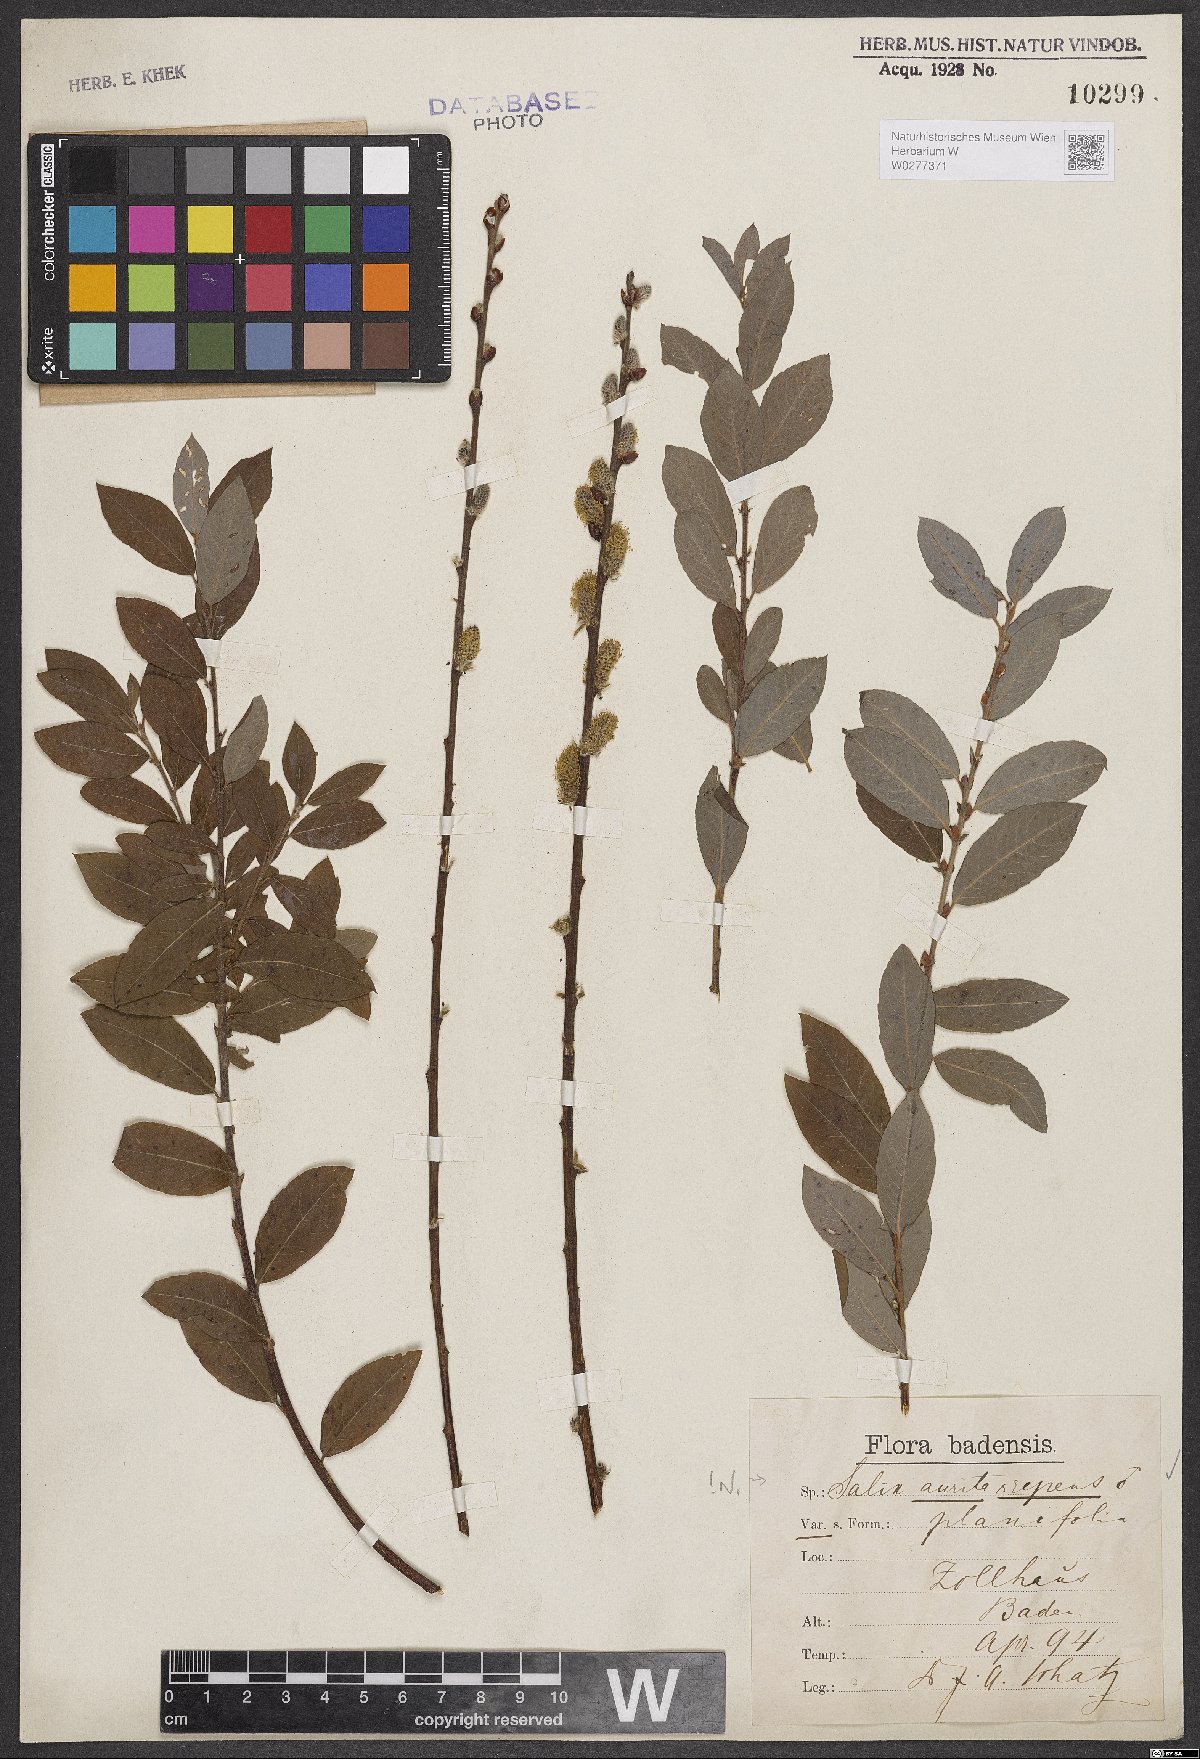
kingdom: Plantae
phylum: Tracheophyta
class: Magnoliopsida
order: Malpighiales
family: Salicaceae
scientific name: Salicaceae
